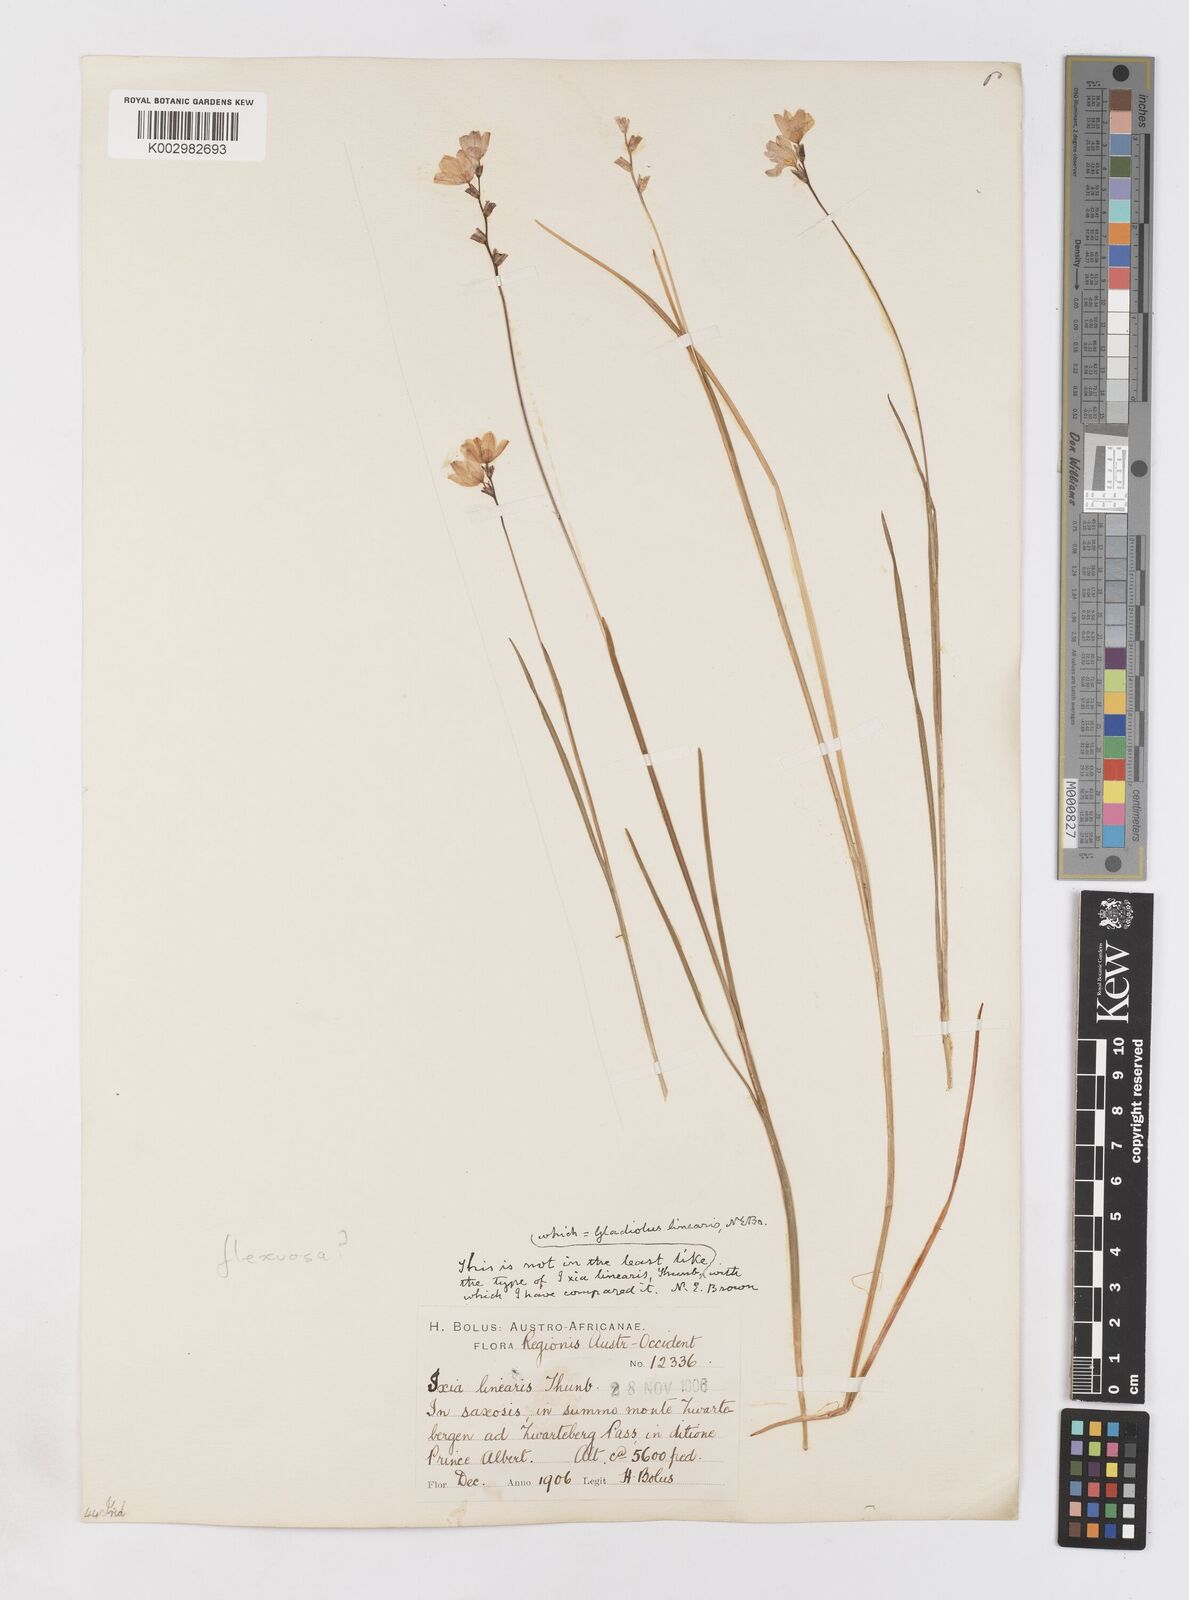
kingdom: Plantae
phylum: Tracheophyta
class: Liliopsida
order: Asparagales
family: Iridaceae
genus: Ixia
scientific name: Ixia flexuosa
